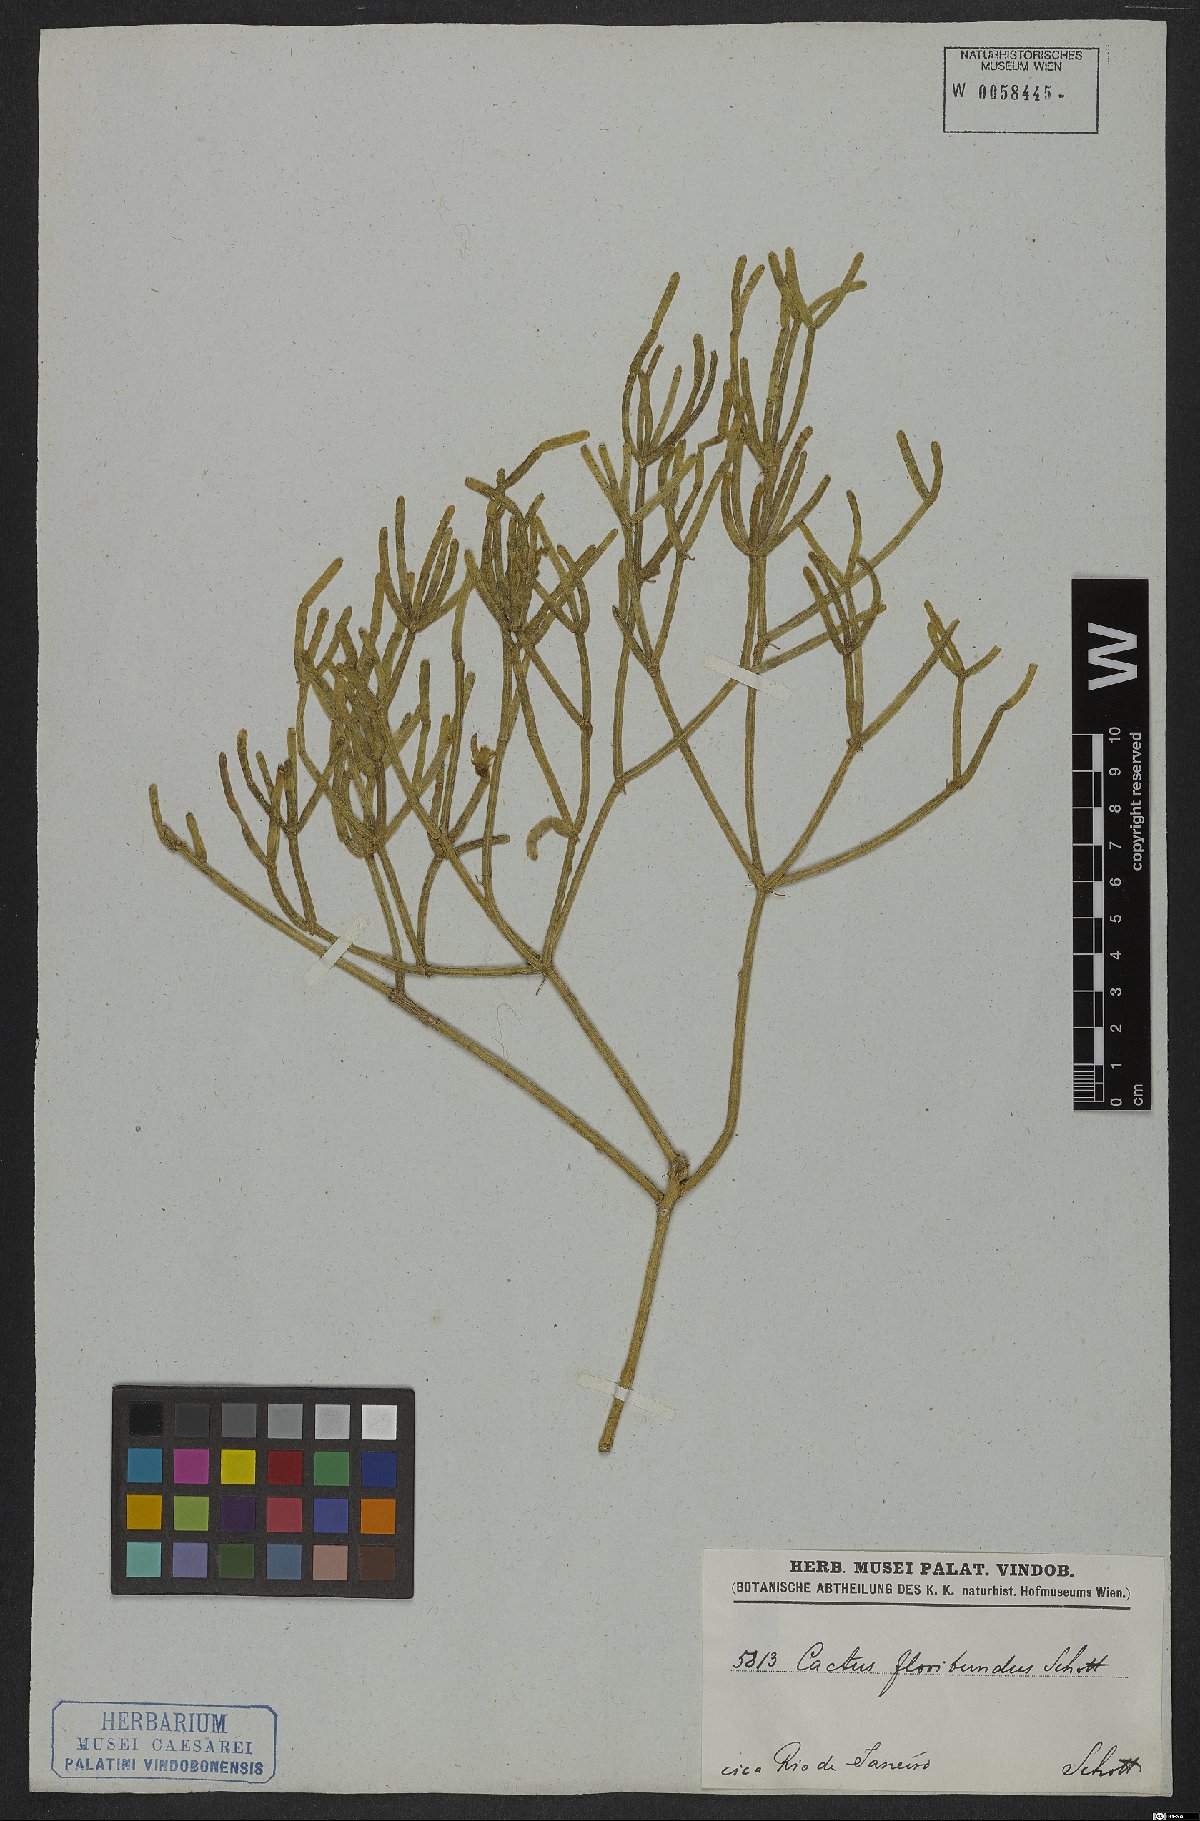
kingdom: Plantae
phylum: Tracheophyta
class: Magnoliopsida
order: Caryophyllales
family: Cactaceae
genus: Rhipsalis
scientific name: Rhipsalis teres
